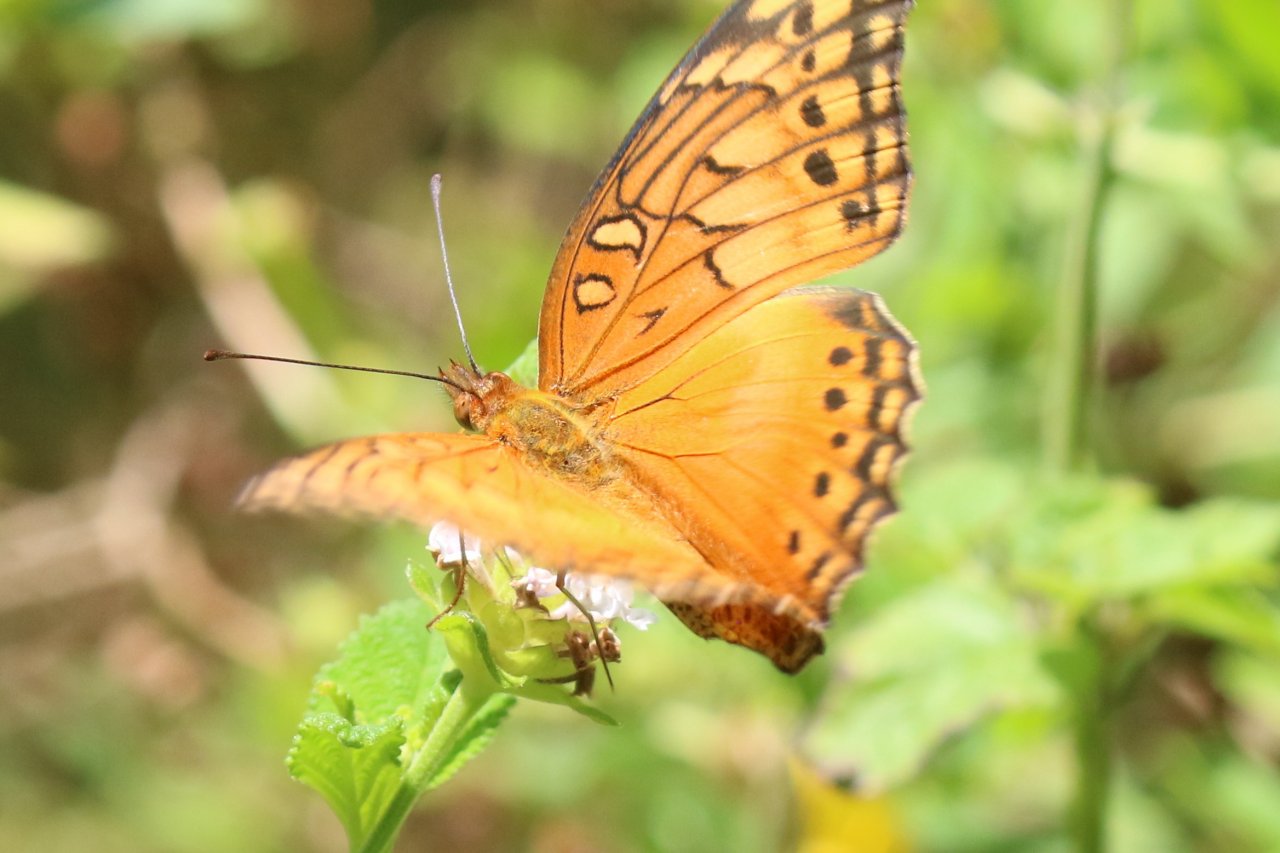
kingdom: Animalia
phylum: Arthropoda
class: Insecta
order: Lepidoptera
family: Nymphalidae
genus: Euptoieta
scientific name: Euptoieta hegesia
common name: Mexican Fritillary
